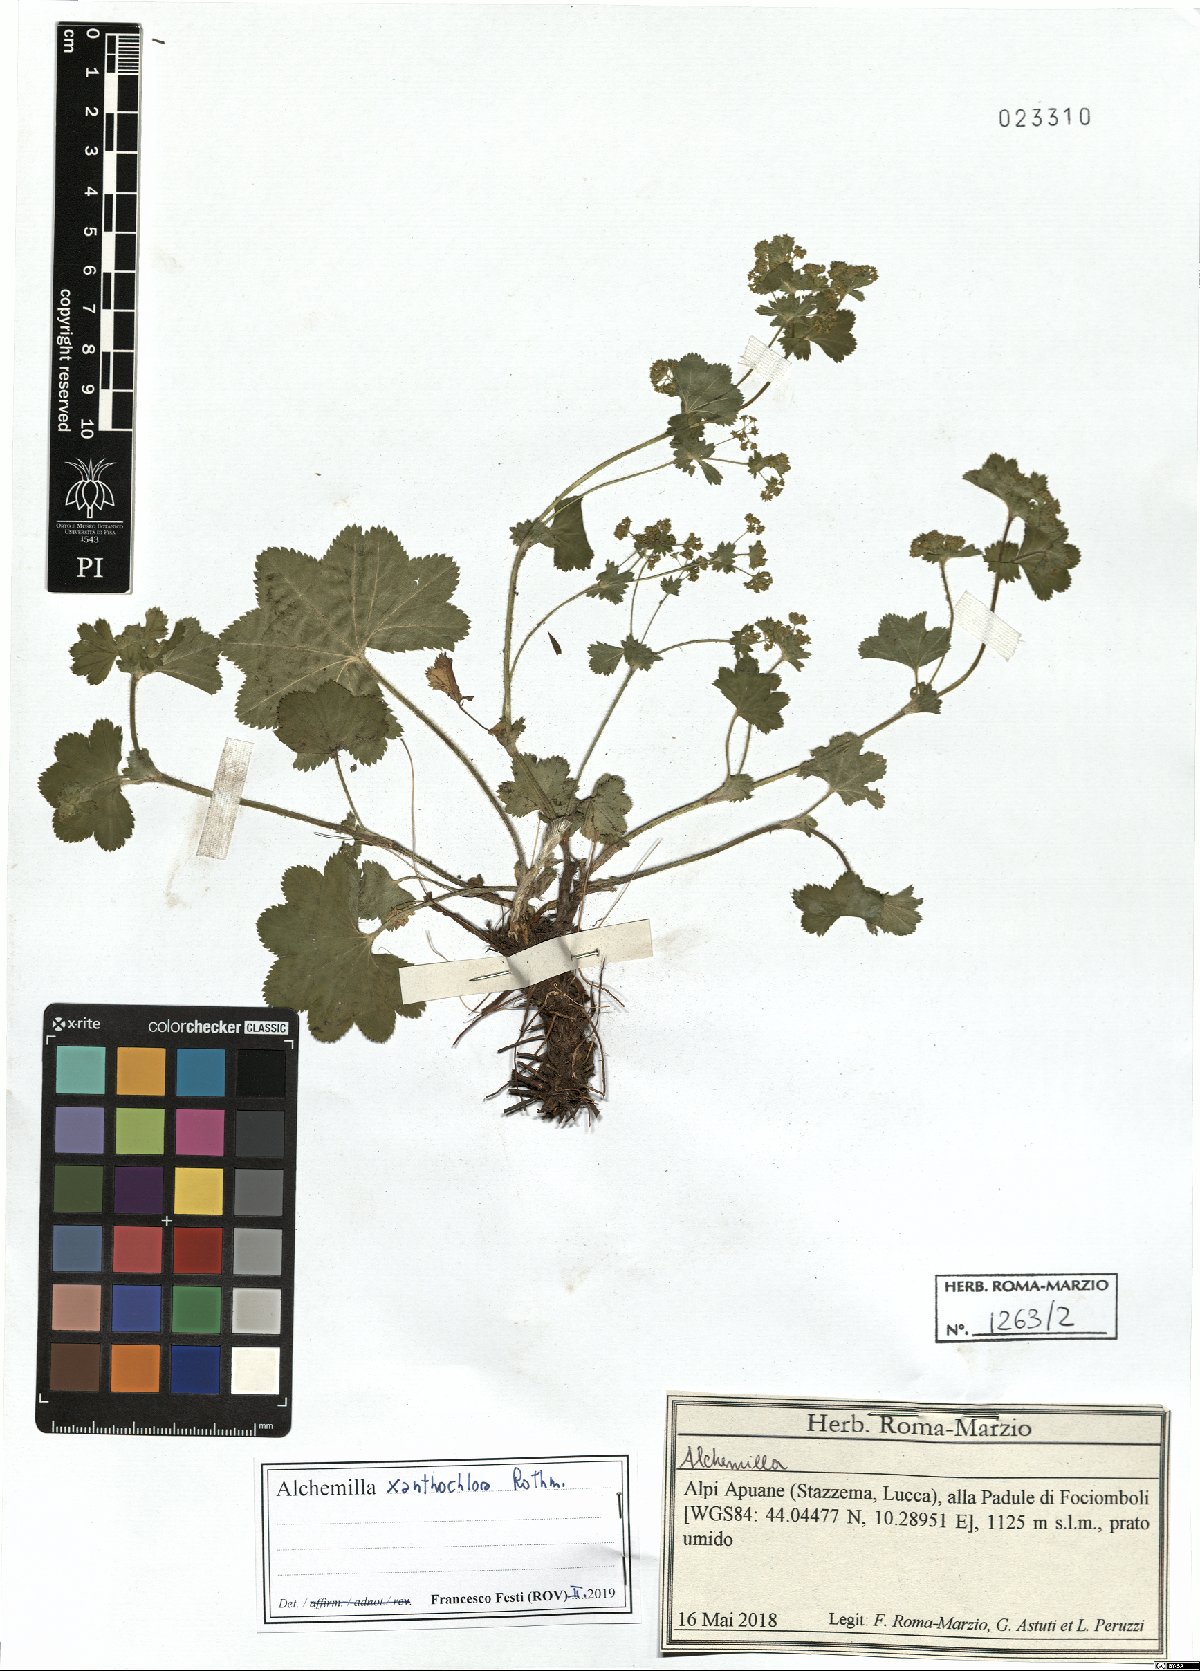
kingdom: Plantae
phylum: Tracheophyta
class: Magnoliopsida
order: Rosales
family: Rosaceae
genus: Alchemilla
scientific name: Alchemilla xanthochlora
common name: Intermediate lady's-mantle
